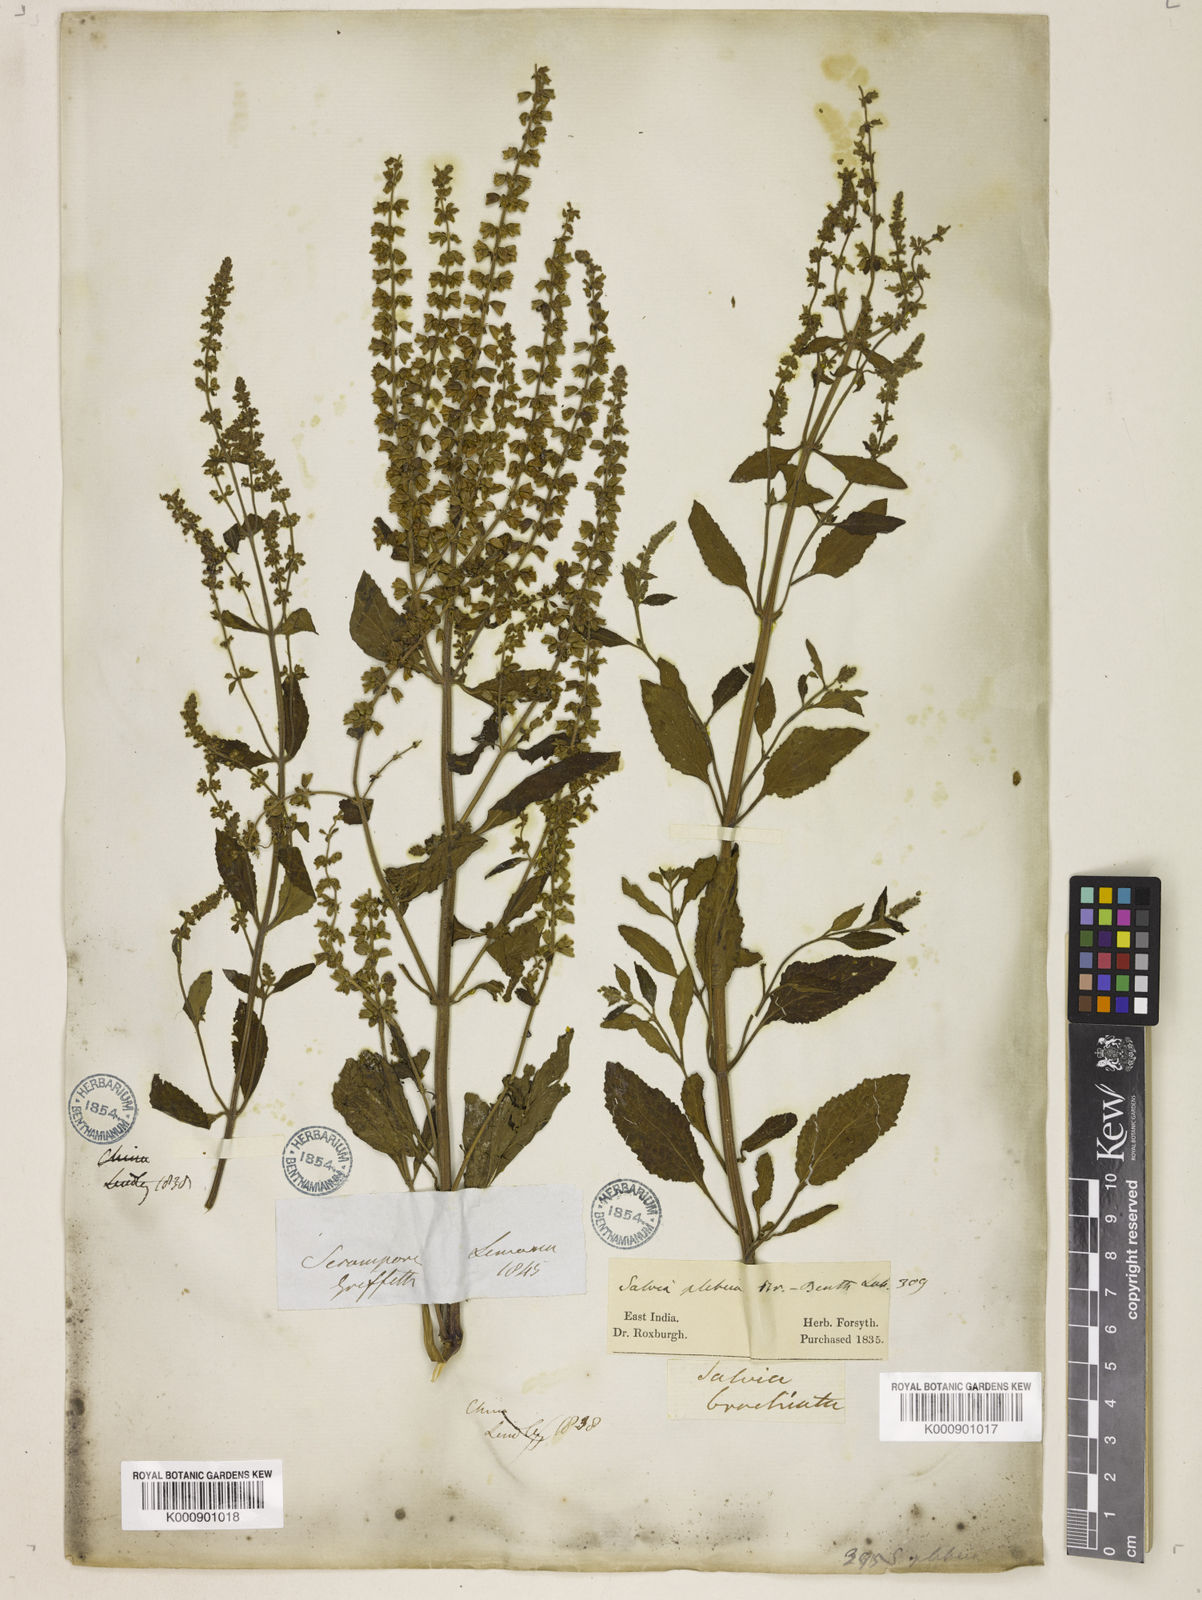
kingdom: Plantae
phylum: Tracheophyta
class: Magnoliopsida
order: Lamiales
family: Lamiaceae
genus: Salvia
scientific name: Salvia plebeia
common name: Australian sage
